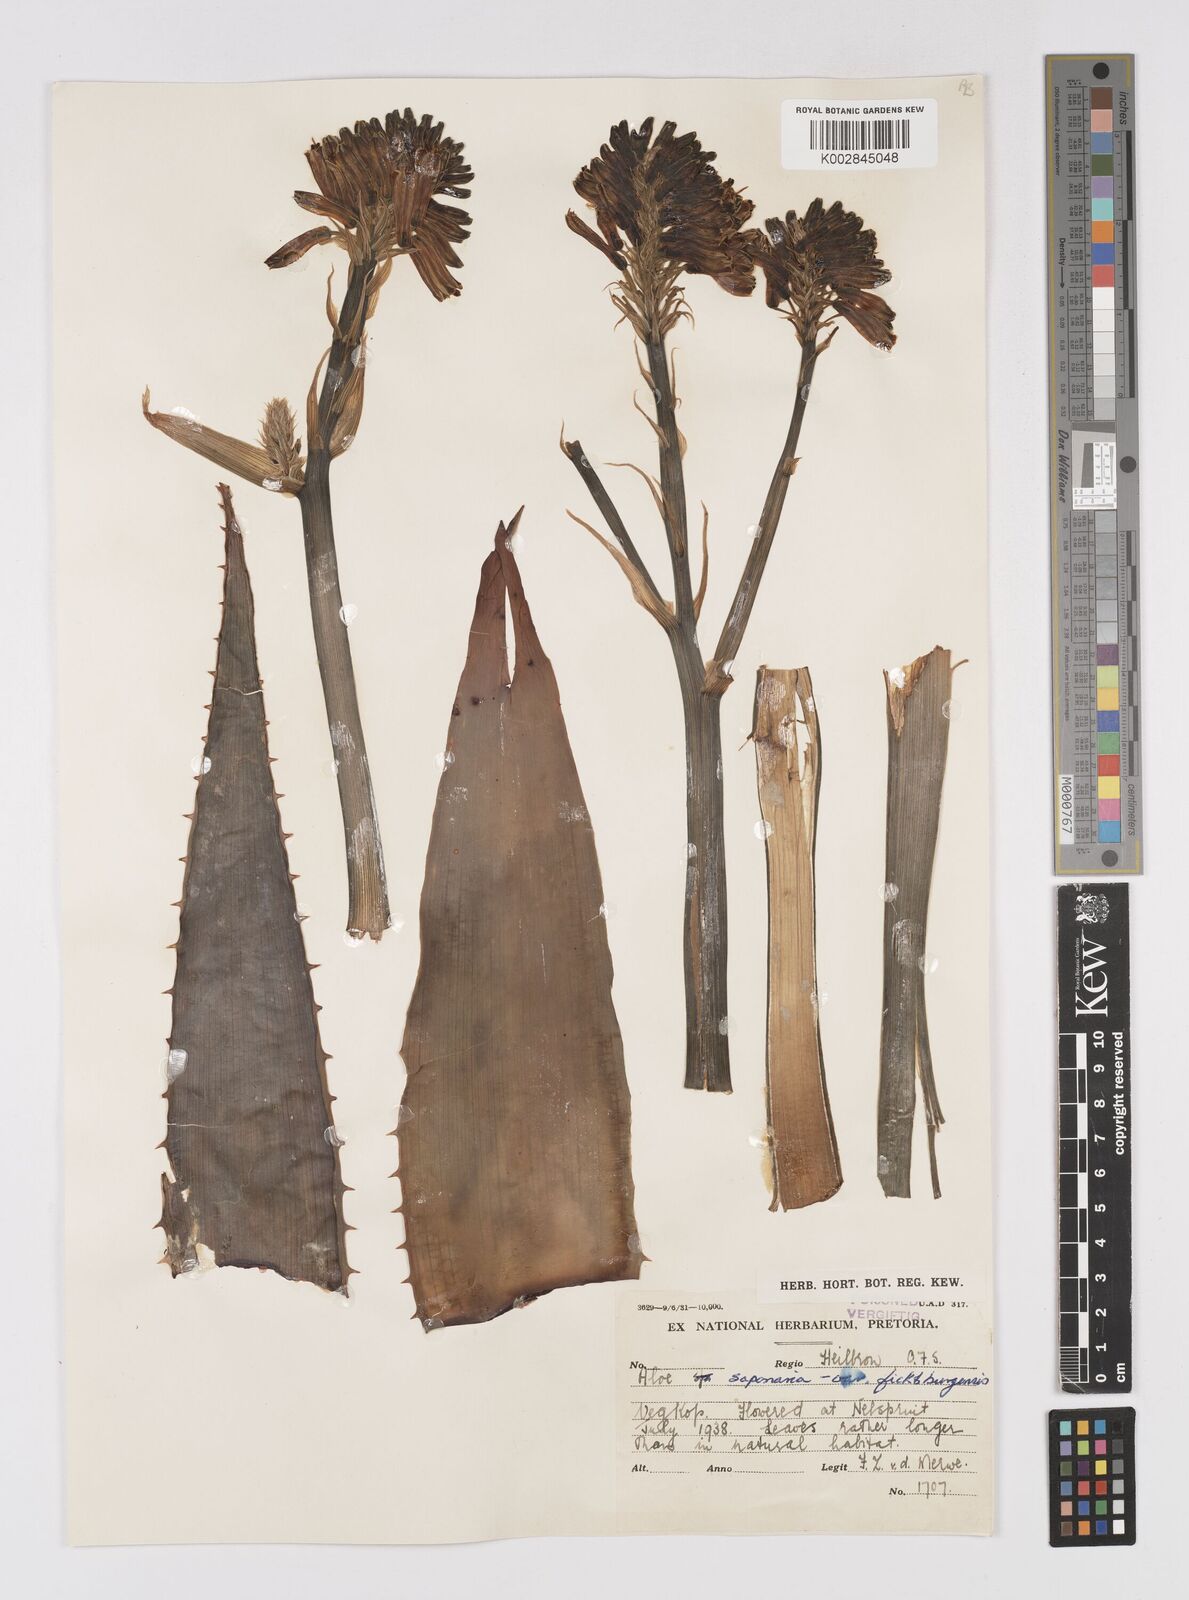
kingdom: Plantae
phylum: Tracheophyta
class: Liliopsida
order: Asparagales
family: Asphodelaceae
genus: Aloe
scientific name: Aloe maculata
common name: Broadleaf aloe
